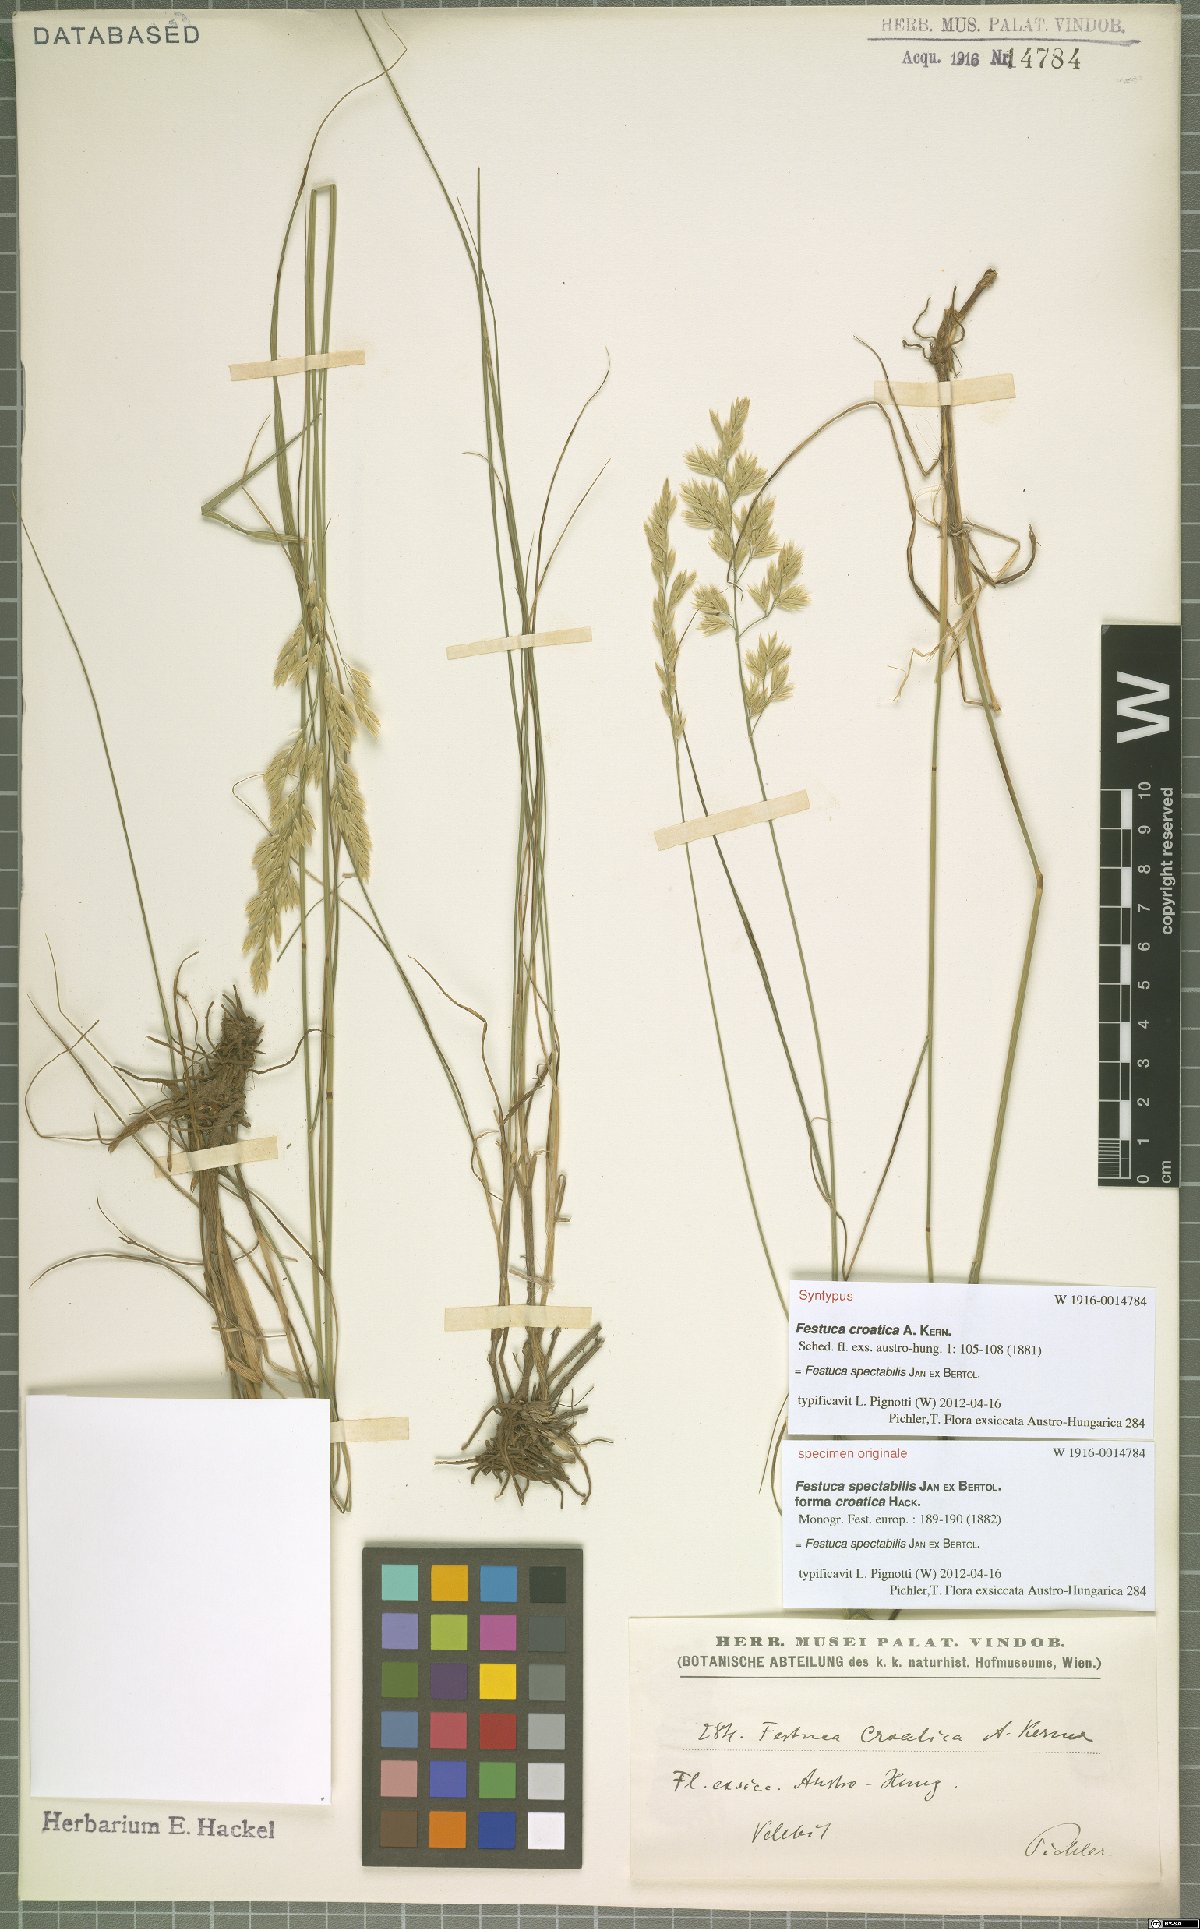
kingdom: Plantae
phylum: Tracheophyta
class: Liliopsida
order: Poales
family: Poaceae
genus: Festuca
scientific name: Festuca spectabilis
